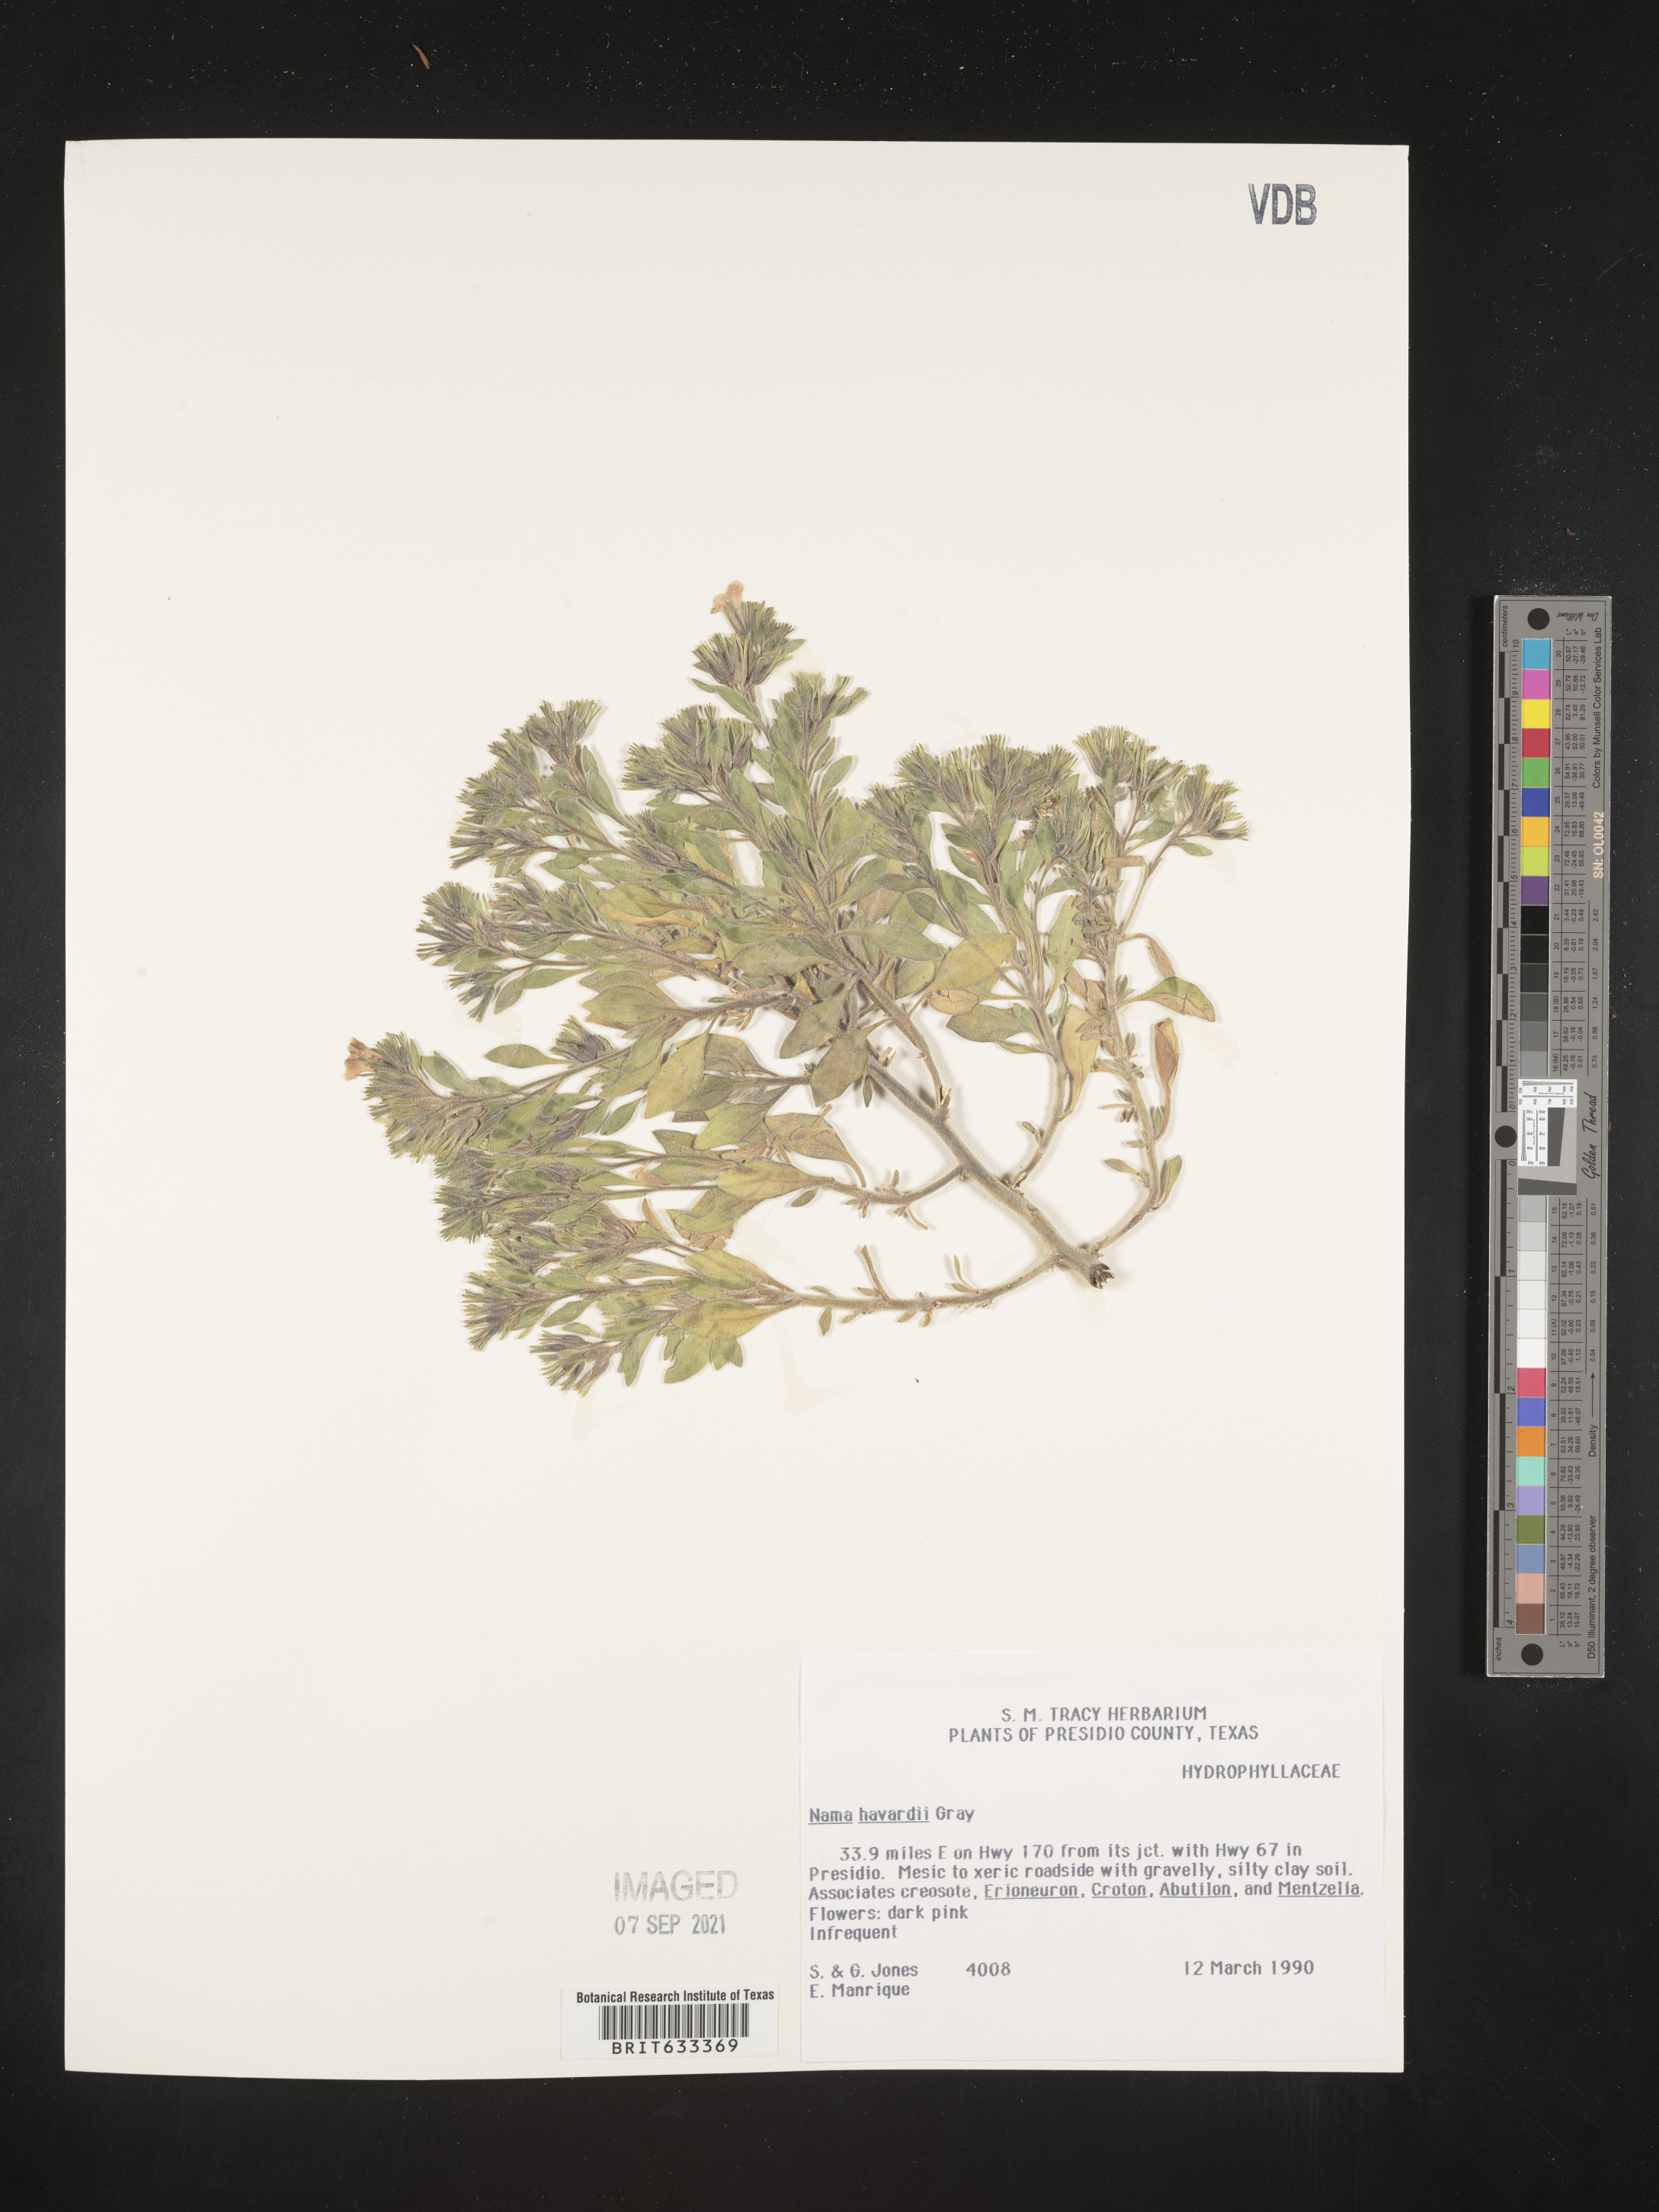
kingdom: Plantae
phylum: Tracheophyta
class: Magnoliopsida
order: Boraginales
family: Namaceae
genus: Nama
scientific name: Nama havardii
